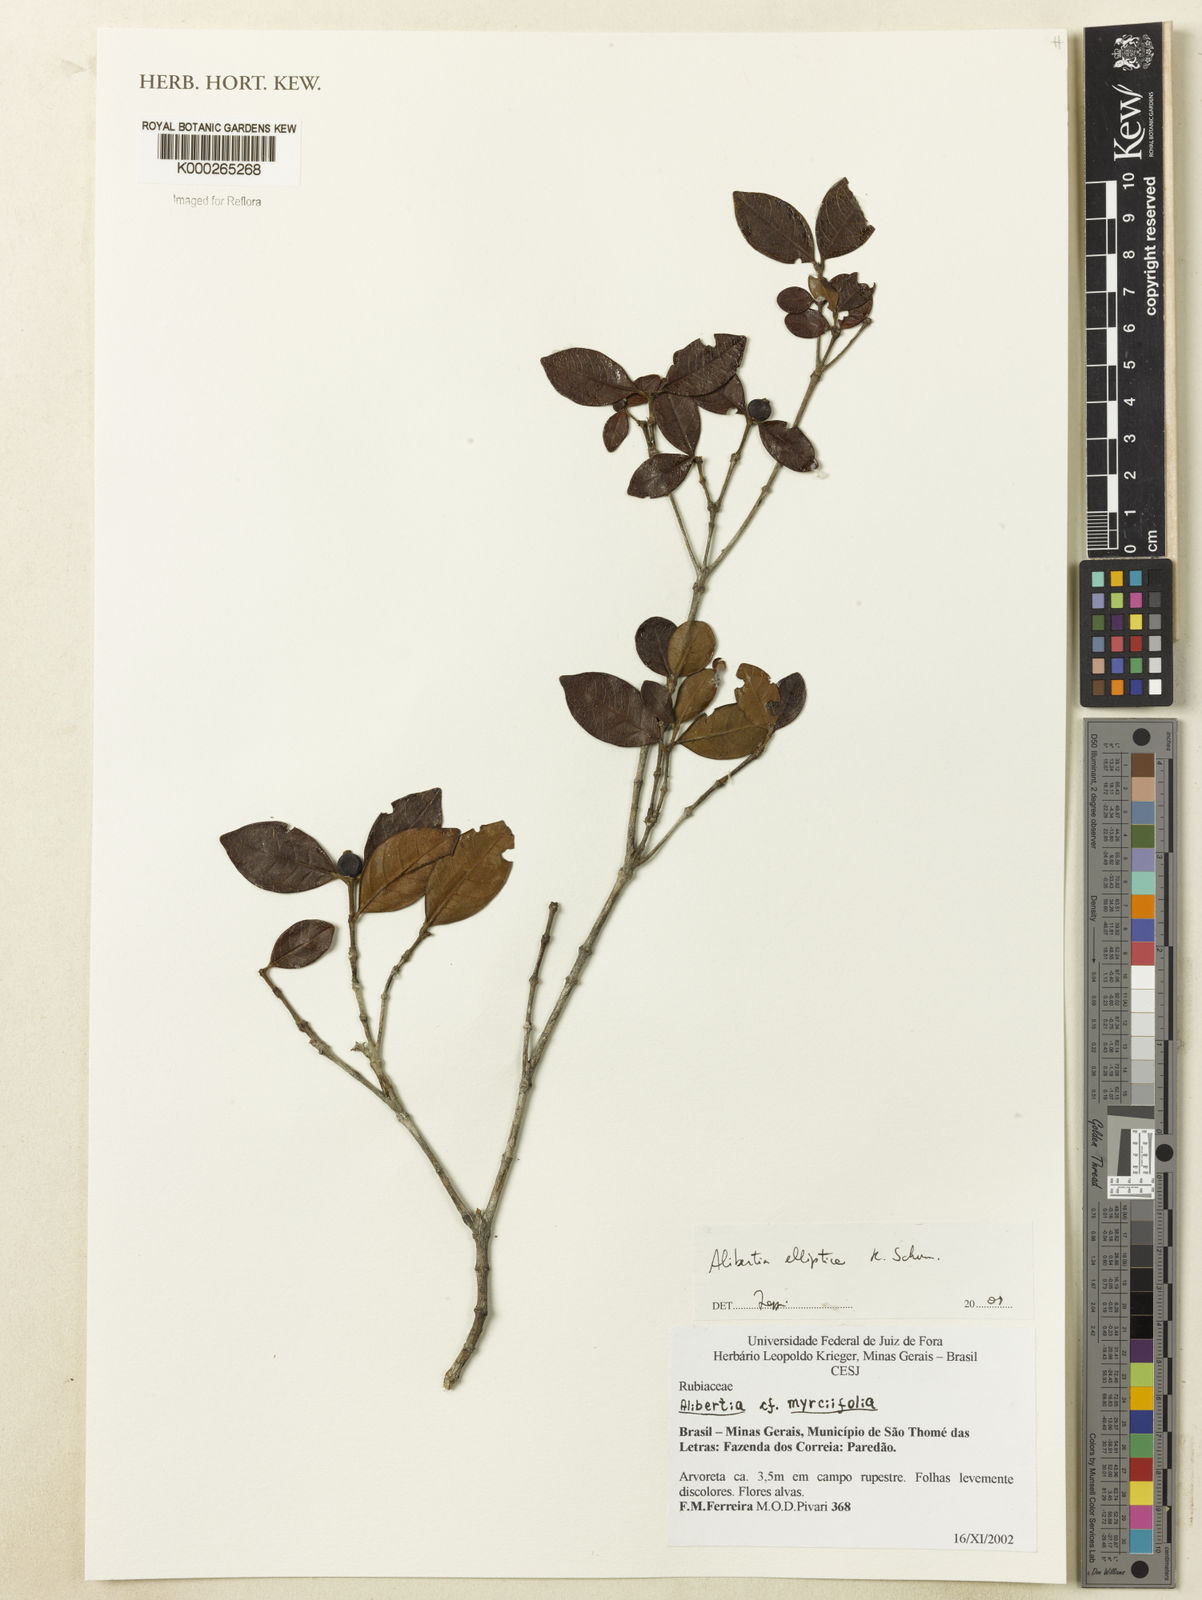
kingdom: Plantae
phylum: Tracheophyta
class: Magnoliopsida
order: Gentianales
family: Rubiaceae
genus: Cordiera
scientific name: Cordiera elliptica
